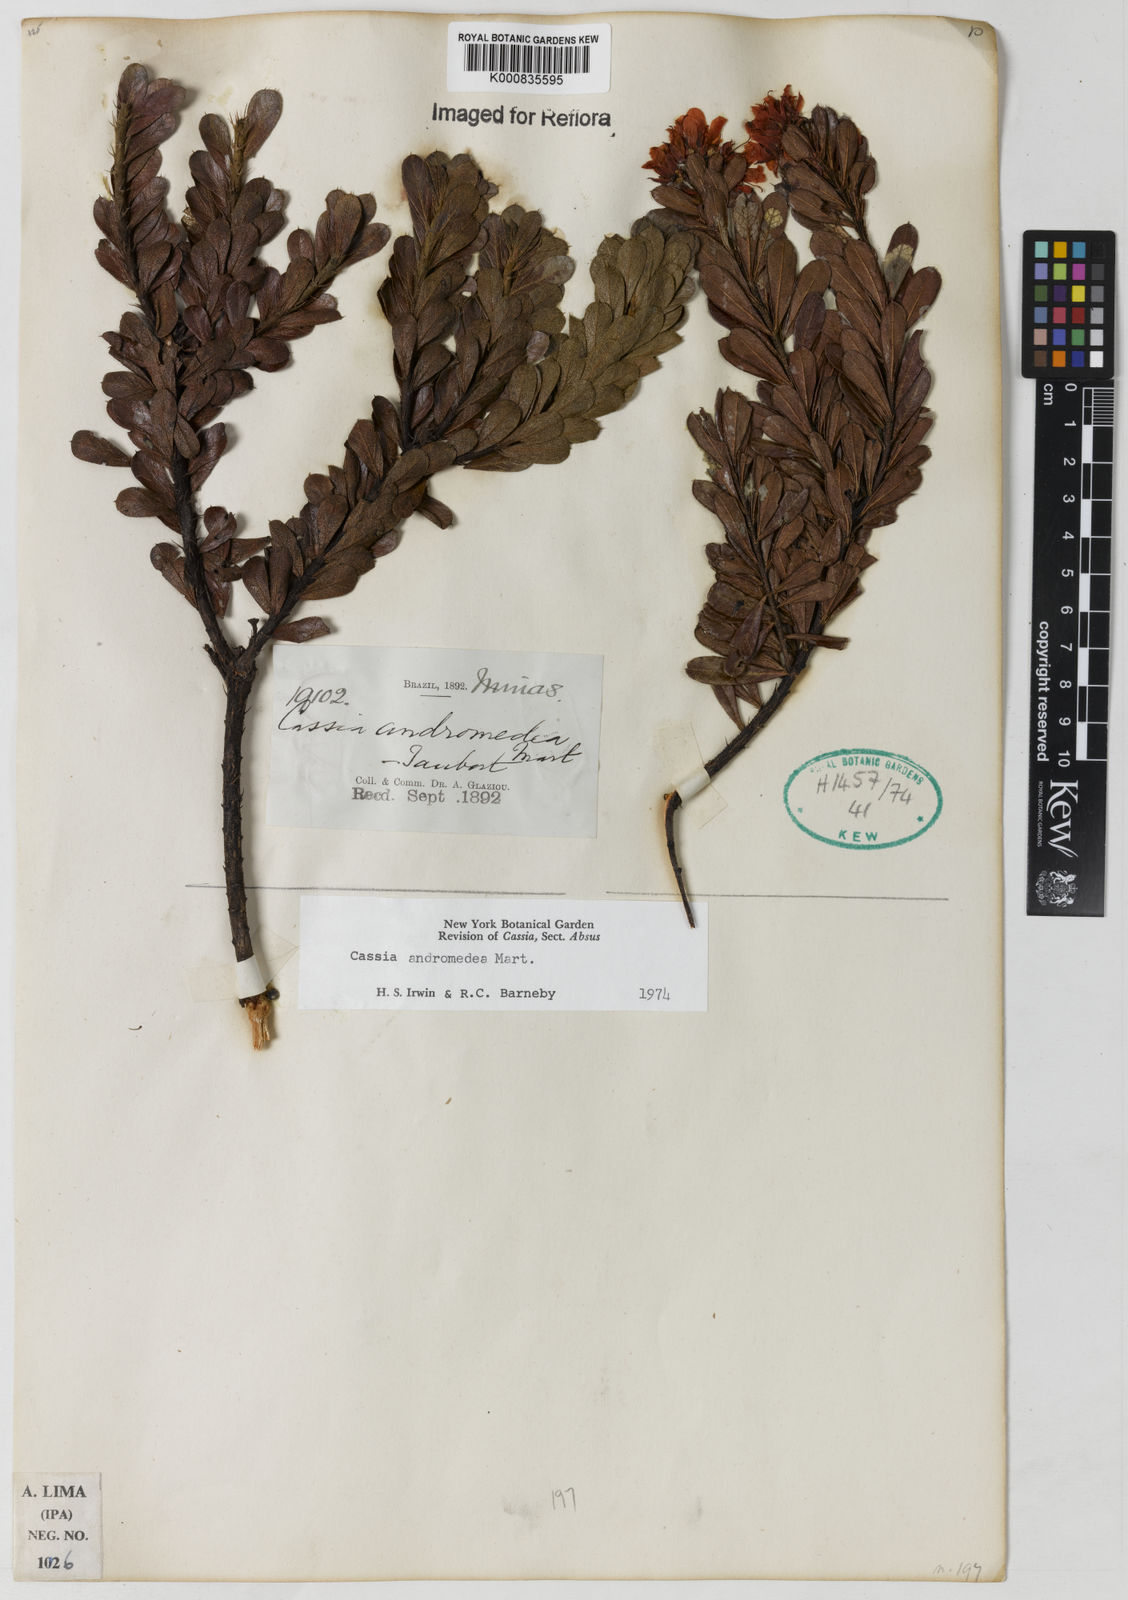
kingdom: Plantae
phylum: Tracheophyta
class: Magnoliopsida
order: Fabales
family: Fabaceae
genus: Chamaecrista
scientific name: Chamaecrista andromedea
